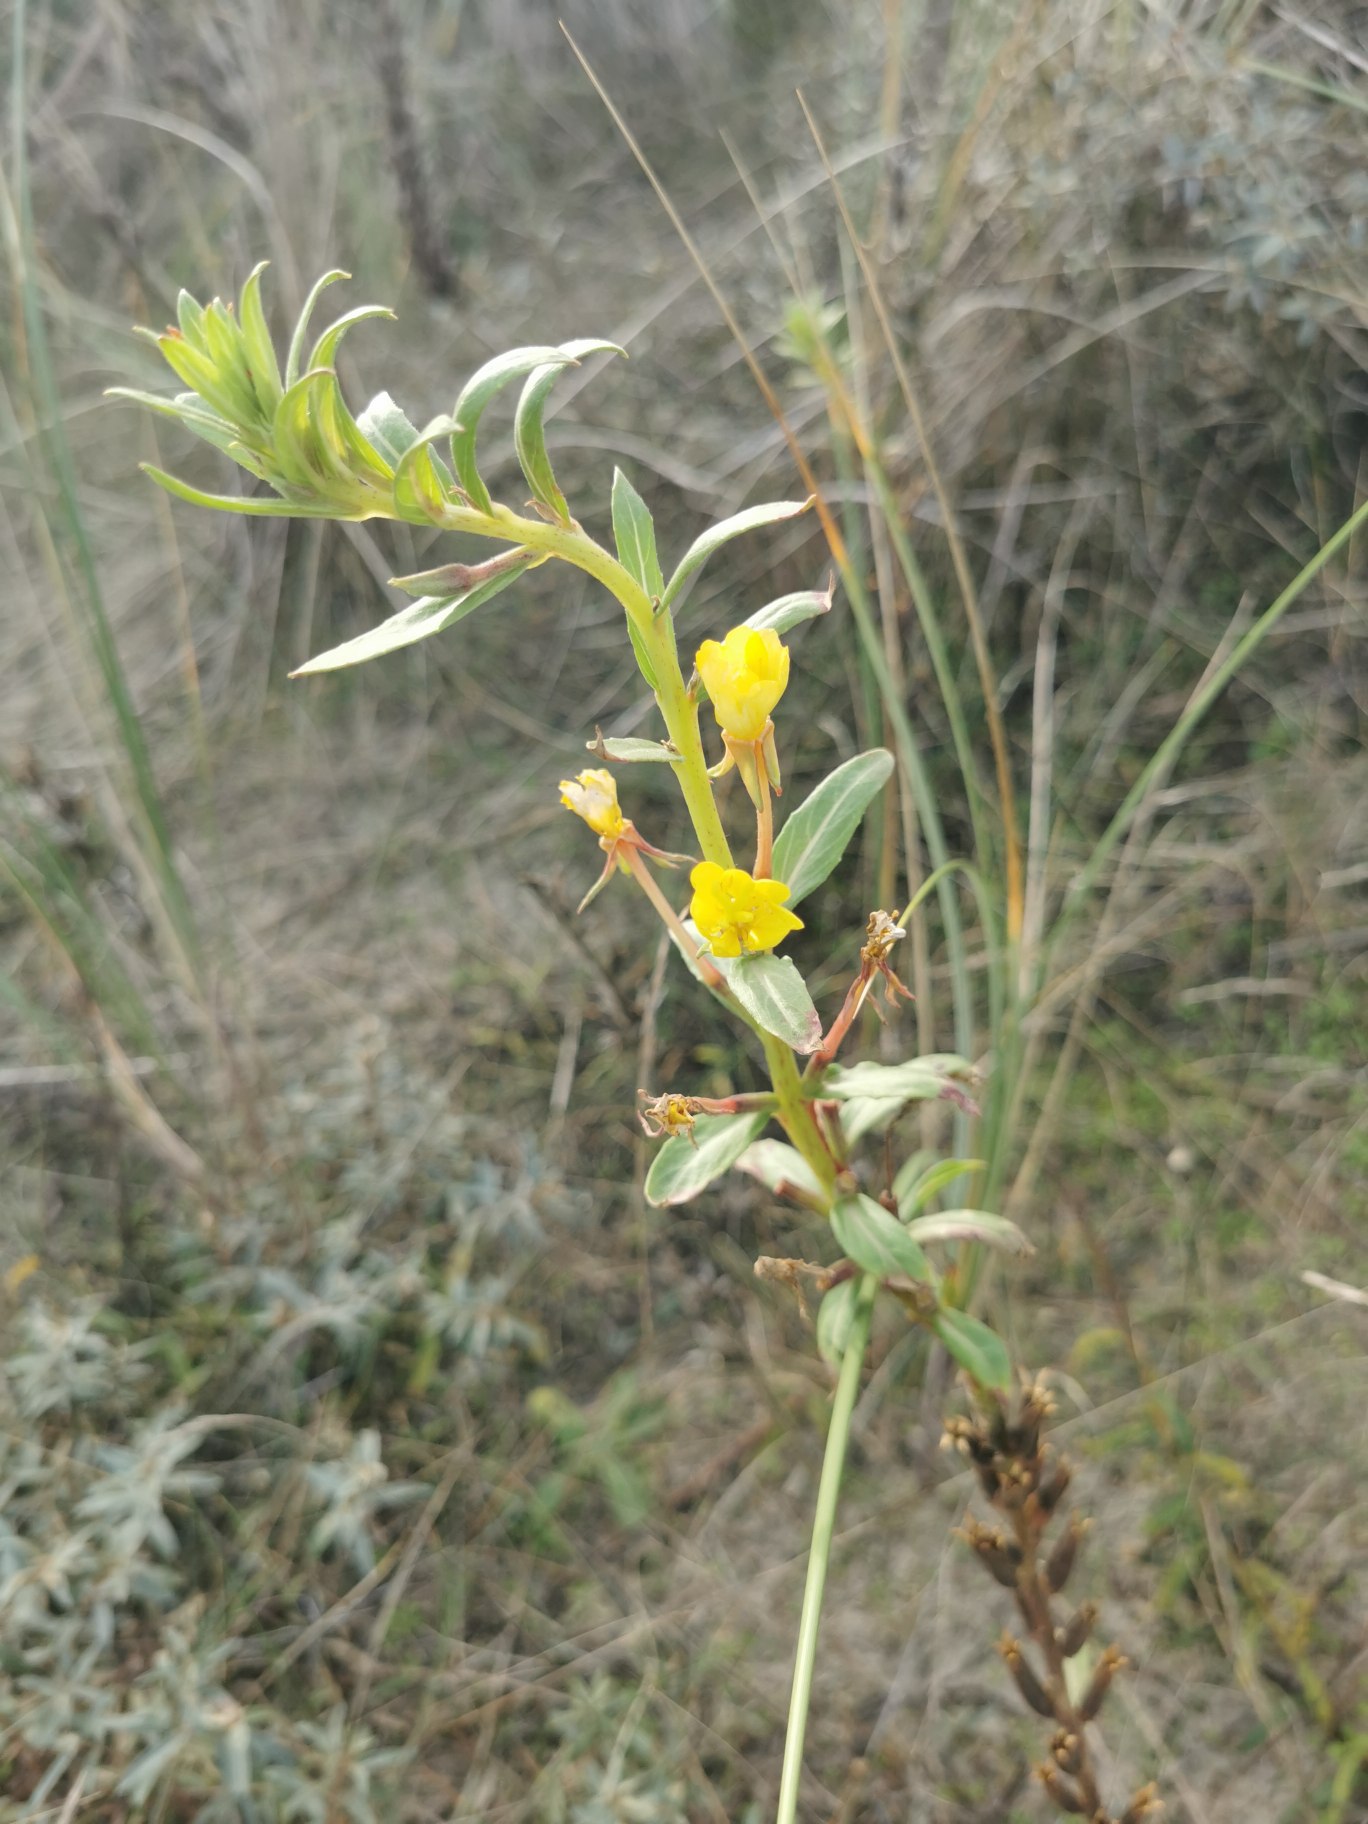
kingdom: Plantae
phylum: Tracheophyta
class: Magnoliopsida
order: Myrtales
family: Onagraceae
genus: Oenothera
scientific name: Oenothera ammophila
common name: Klit-natlys
